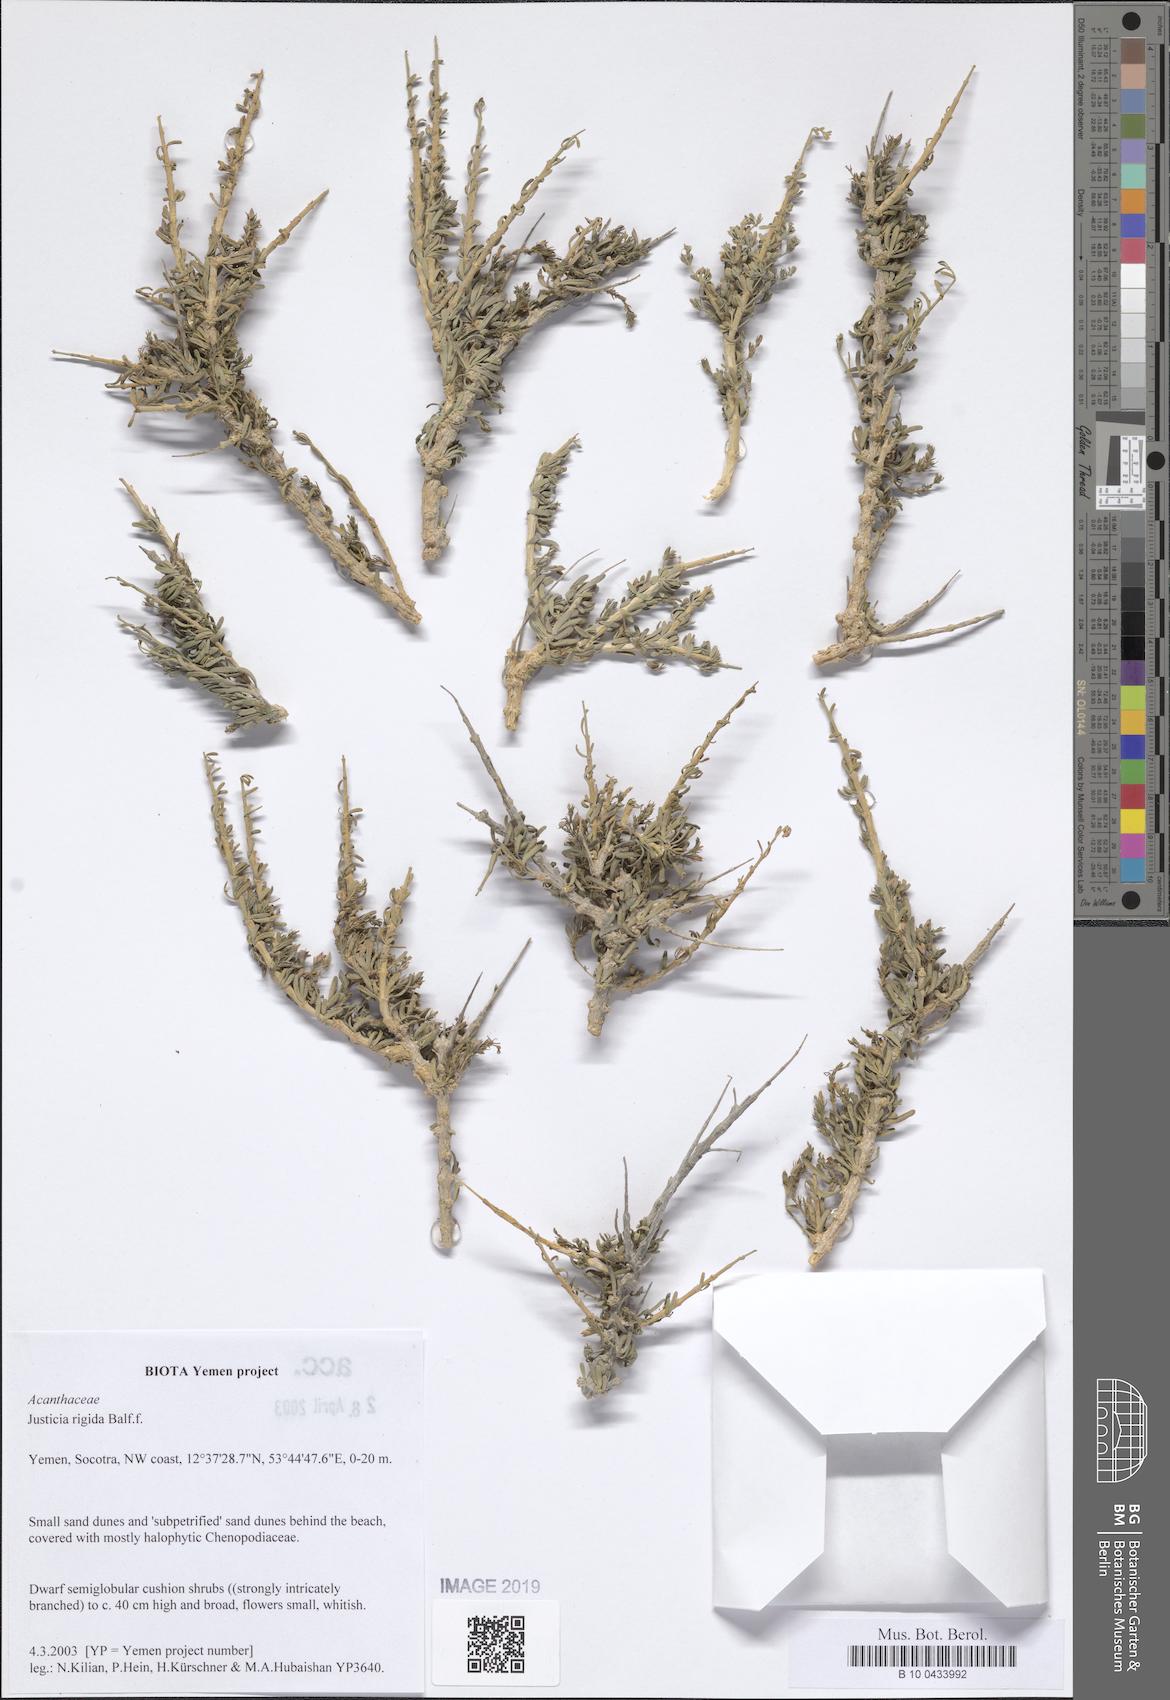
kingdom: Plantae
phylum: Tracheophyta
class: Magnoliopsida
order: Lamiales
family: Acanthaceae
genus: Justicia
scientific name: Justicia rigida
